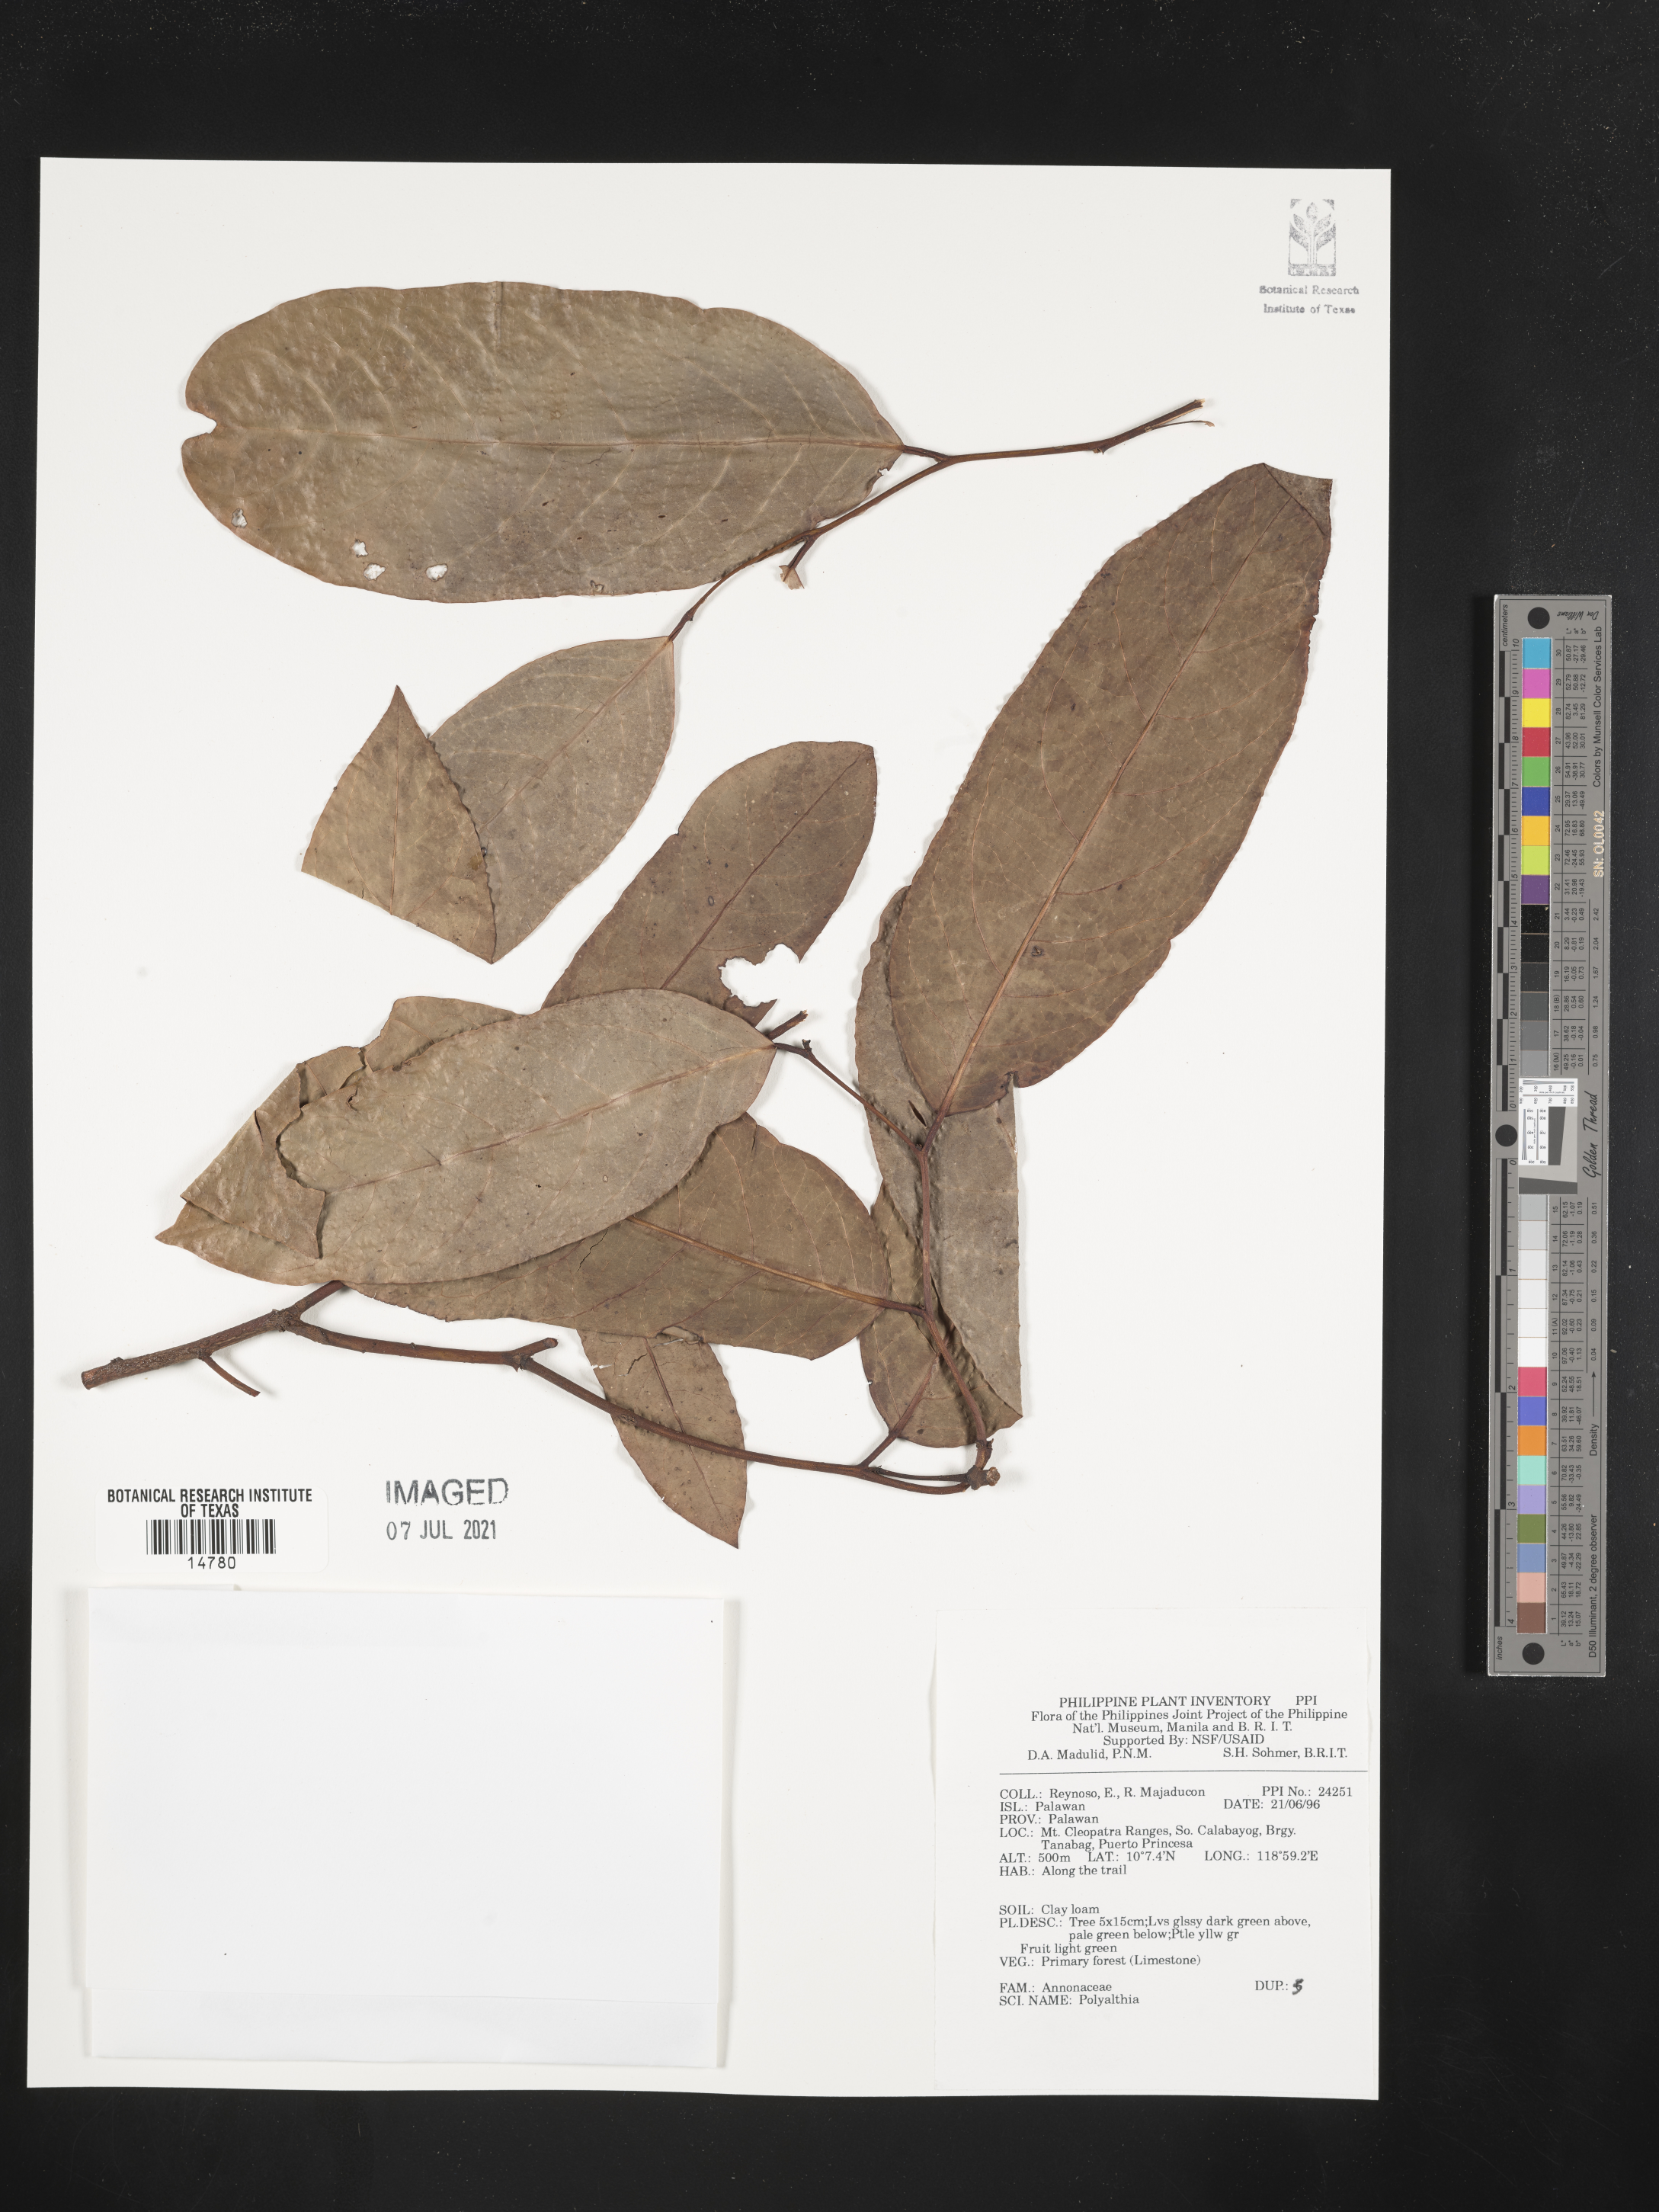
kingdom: Plantae
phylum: Tracheophyta
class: Magnoliopsida
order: Magnoliales
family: Annonaceae
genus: Polyalthia
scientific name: Polyalthia
